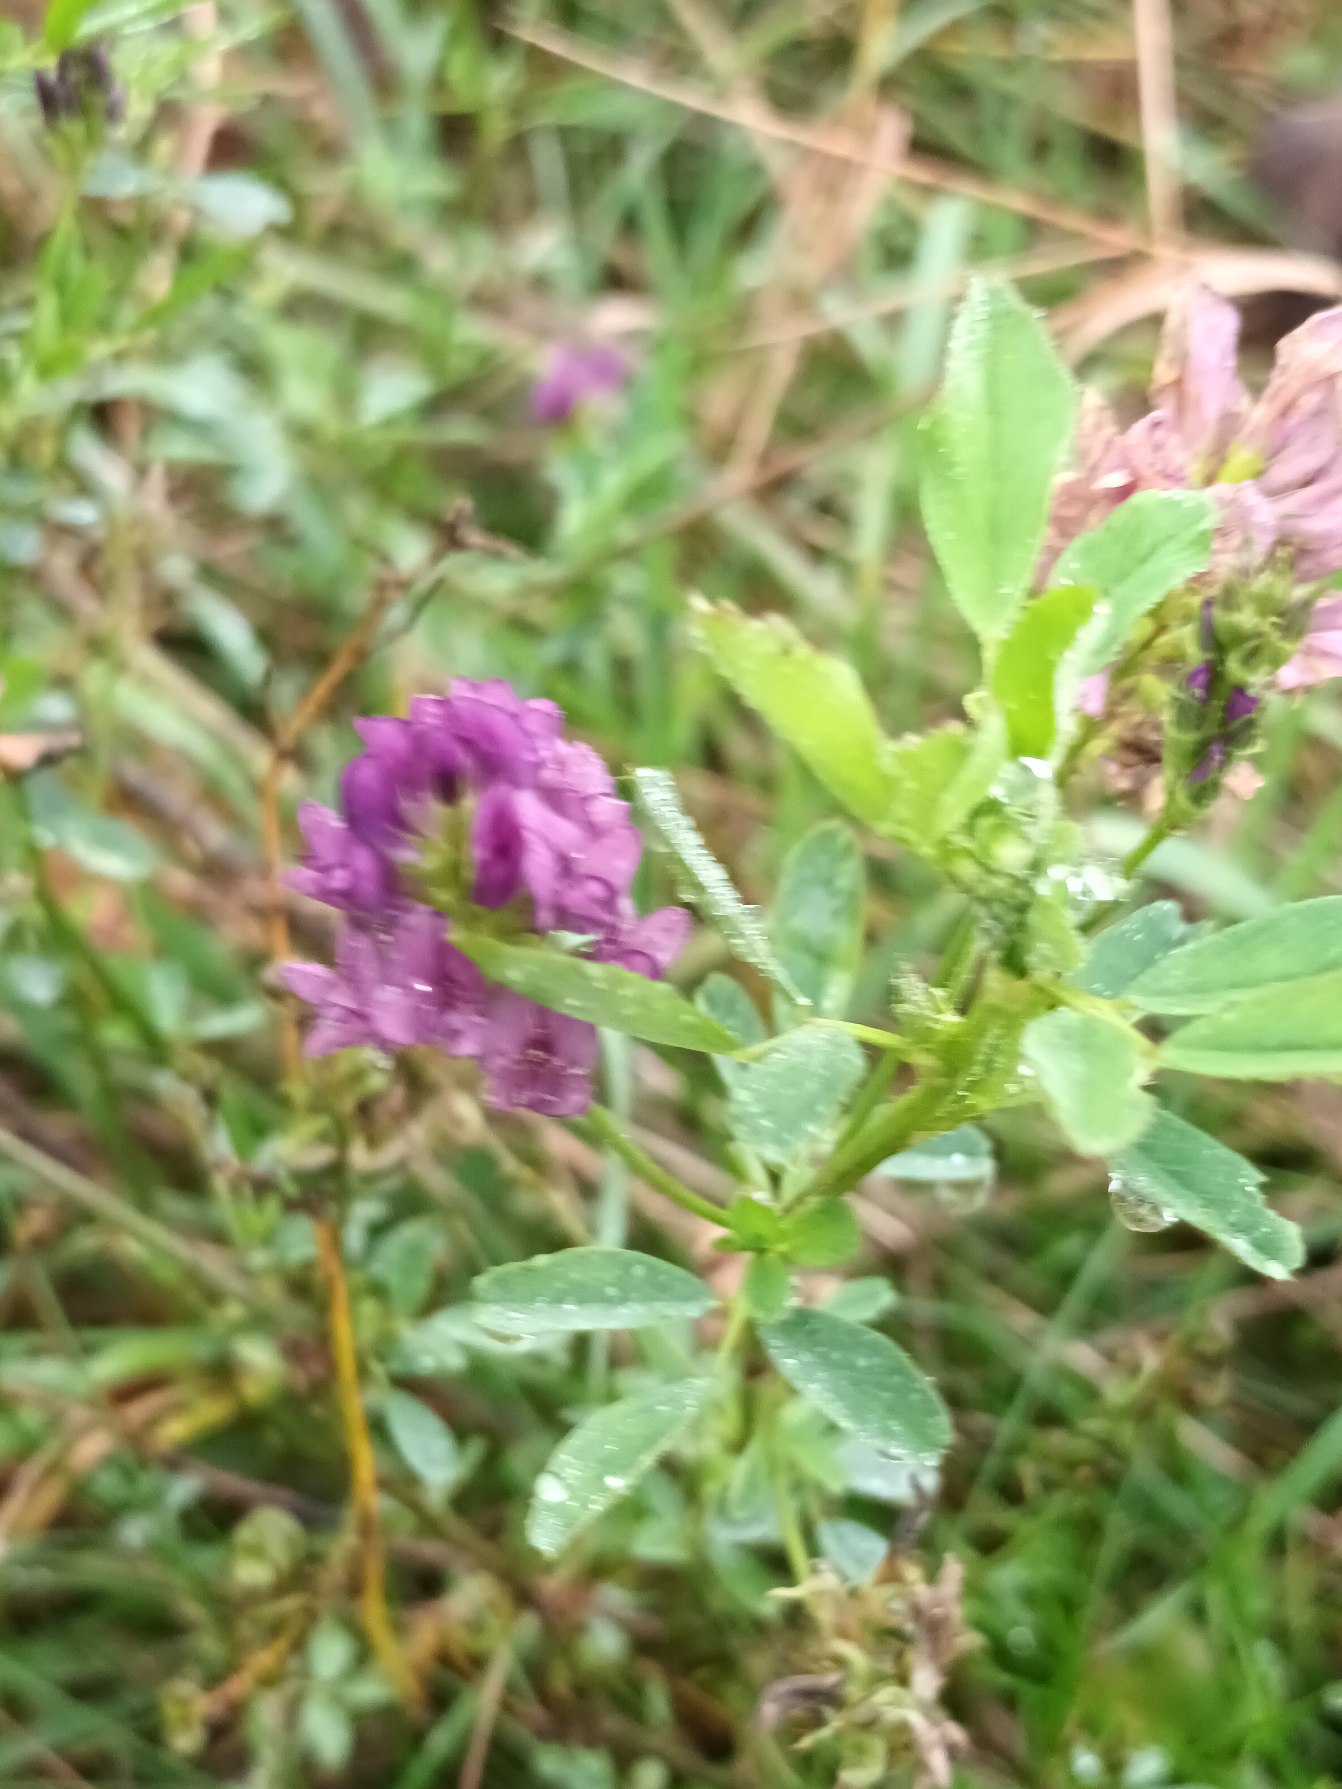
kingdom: Plantae
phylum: Tracheophyta
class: Magnoliopsida
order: Fabales
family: Fabaceae
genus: Medicago
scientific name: Medicago sativa
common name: Lucerne
